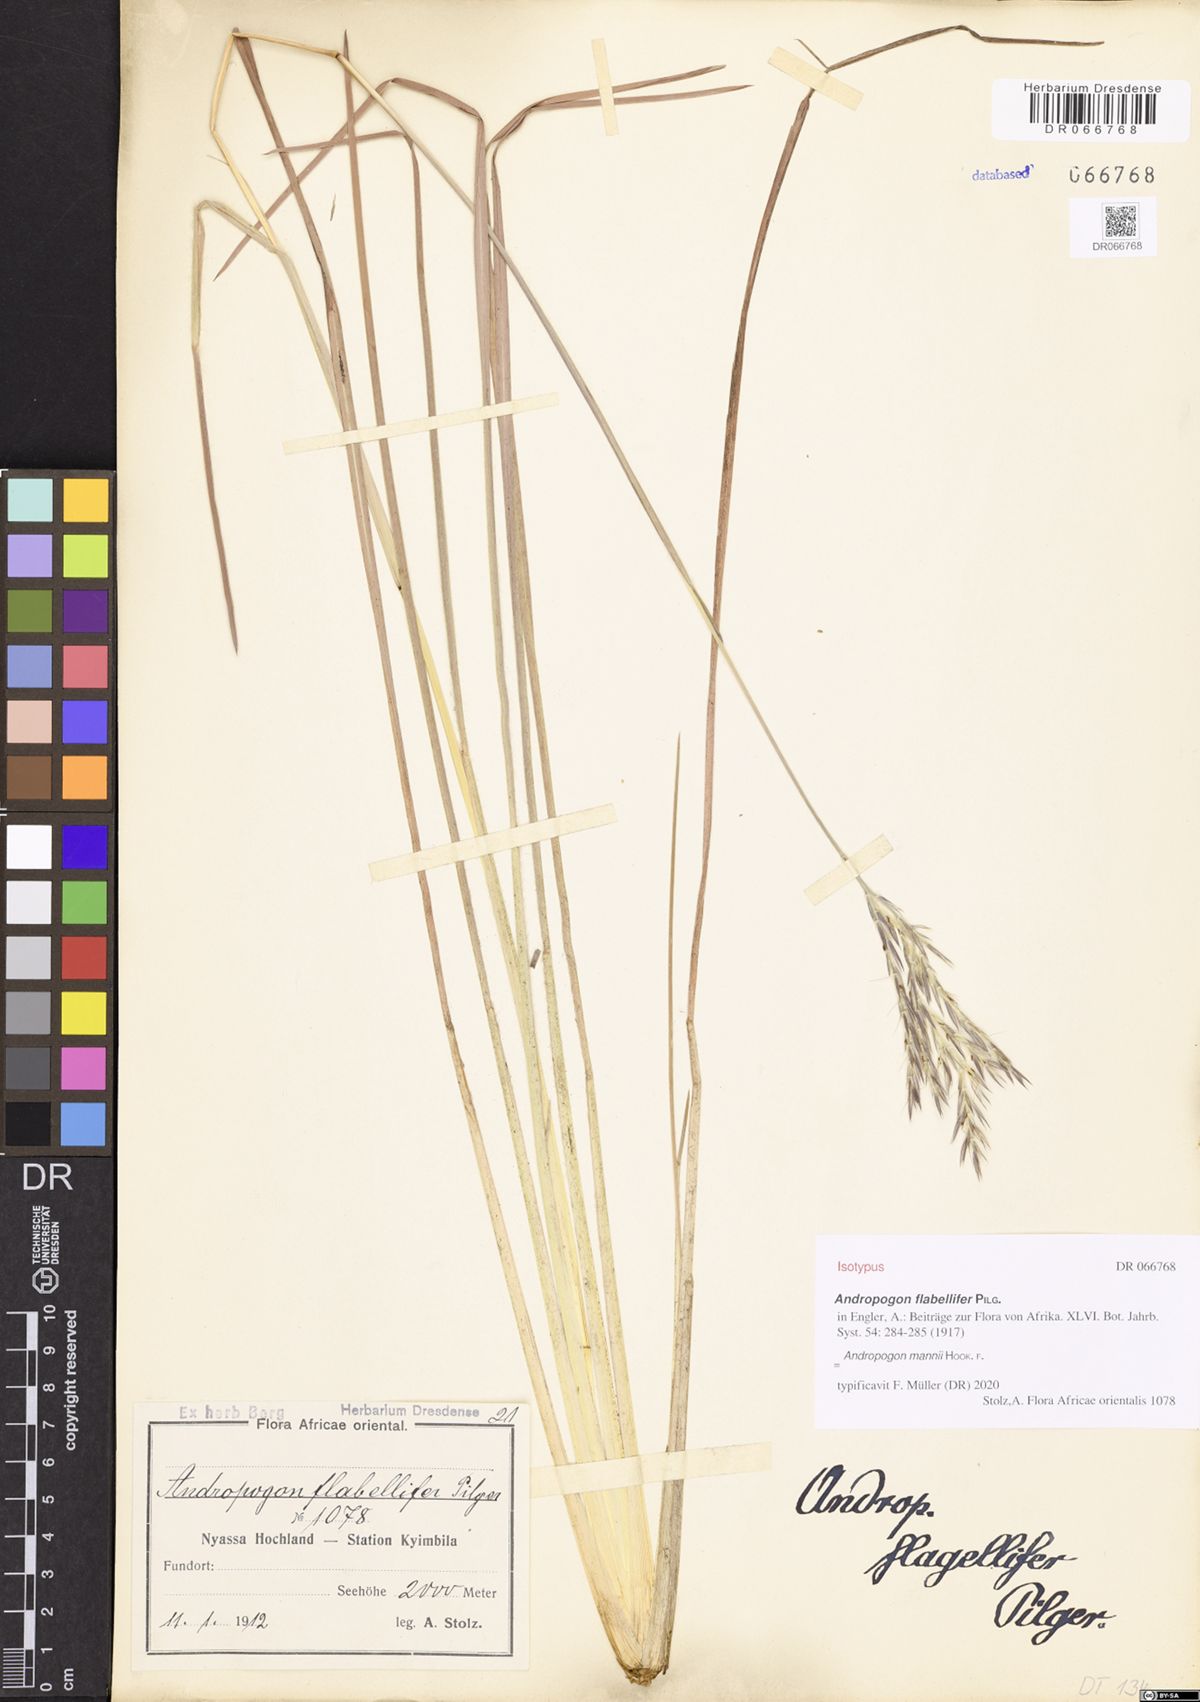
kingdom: Plantae
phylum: Tracheophyta
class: Liliopsida
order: Poales
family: Poaceae
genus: Andropogon
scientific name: Andropogon mannii
